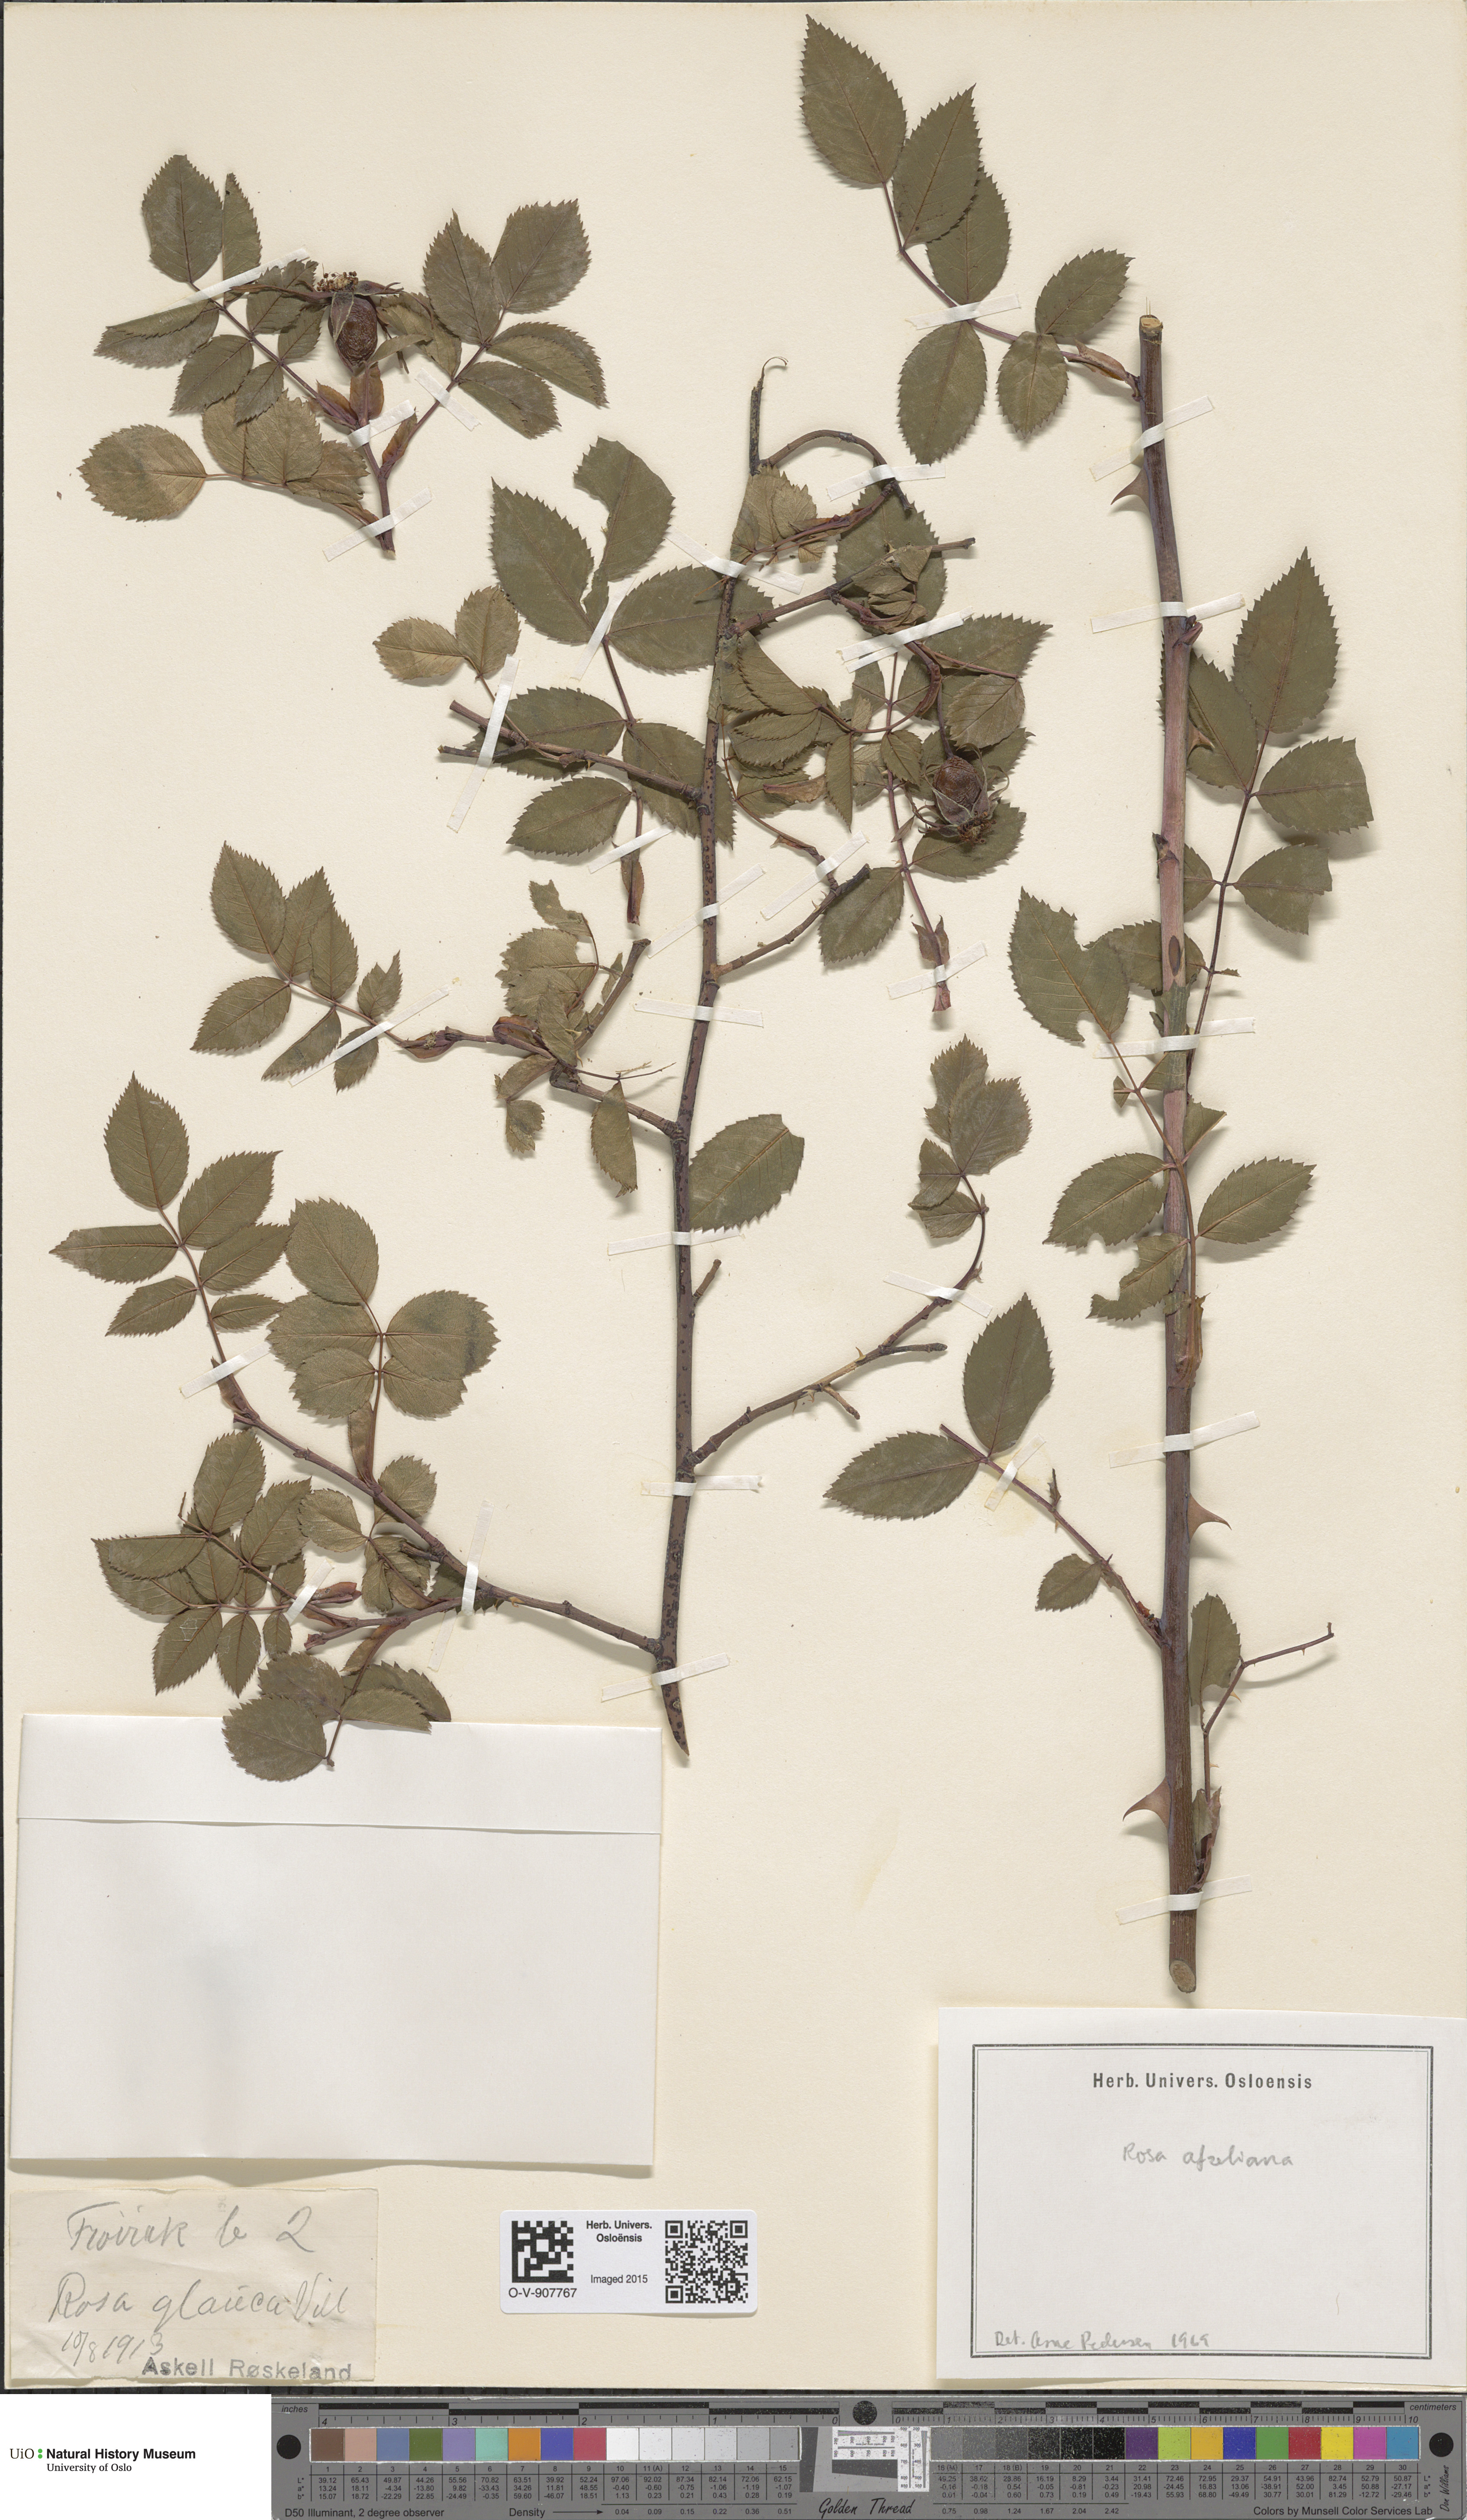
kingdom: Plantae
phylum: Tracheophyta
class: Magnoliopsida
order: Rosales
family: Rosaceae
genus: Rosa
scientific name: Rosa
